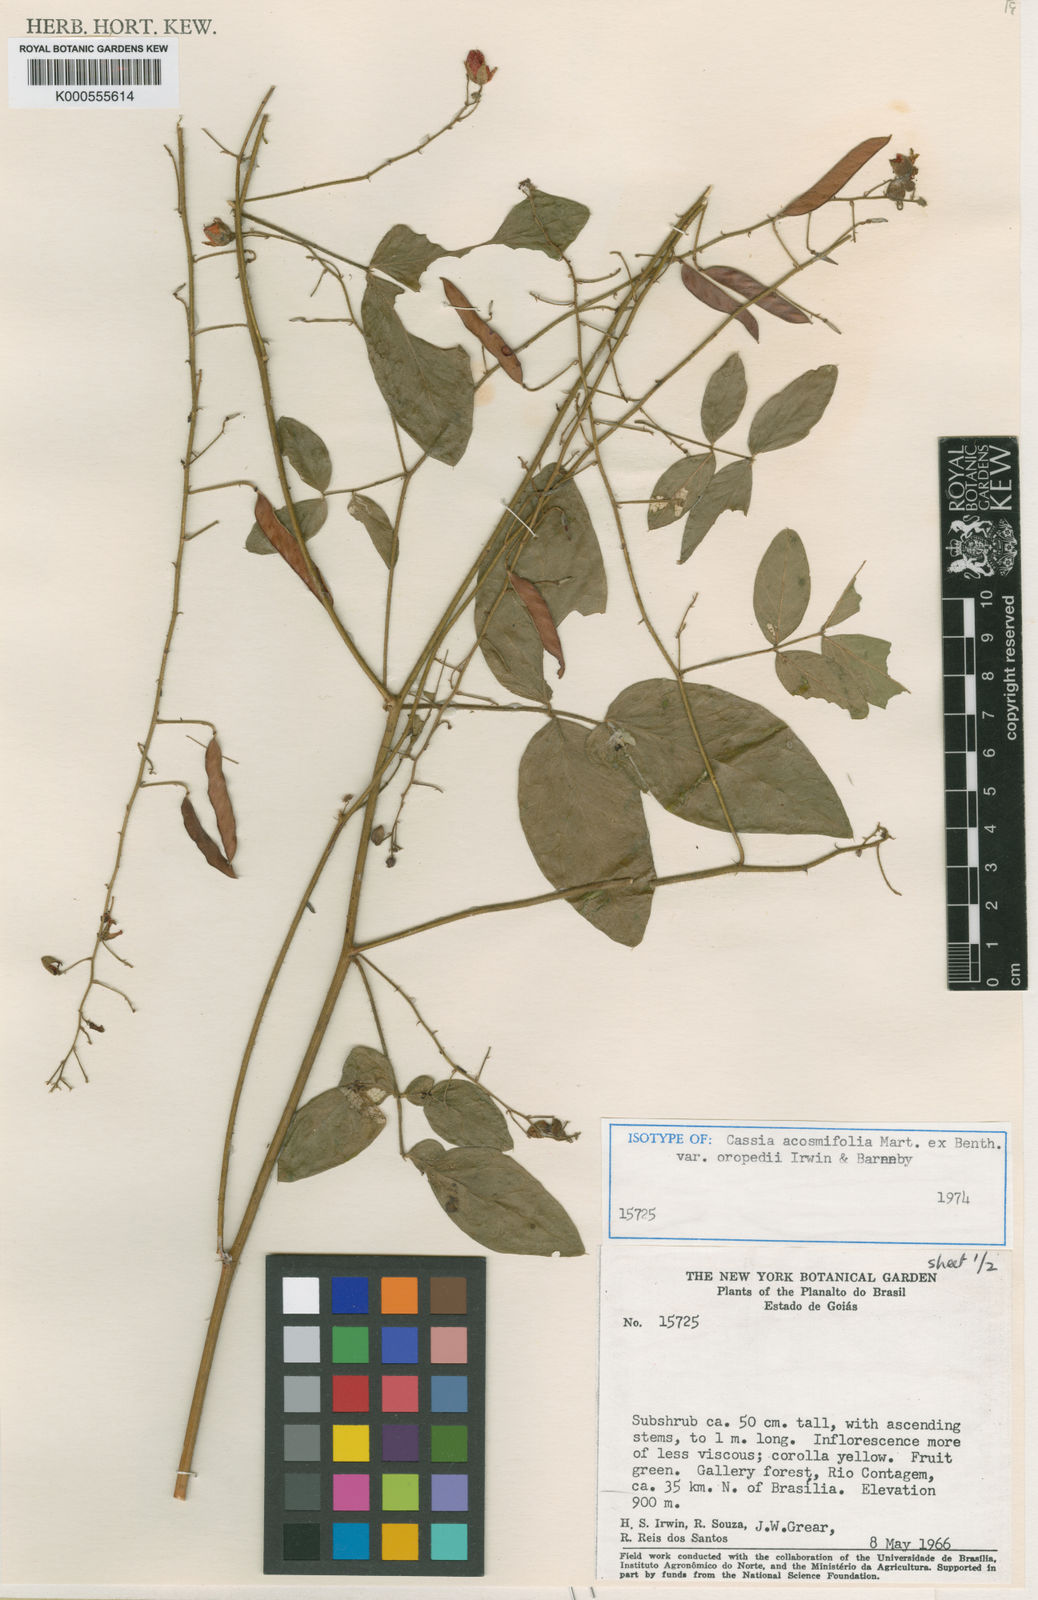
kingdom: Plantae
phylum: Tracheophyta
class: Magnoliopsida
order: Fabales
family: Fabaceae
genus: Chamaecrista
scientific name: Chamaecrista acosmifolia
